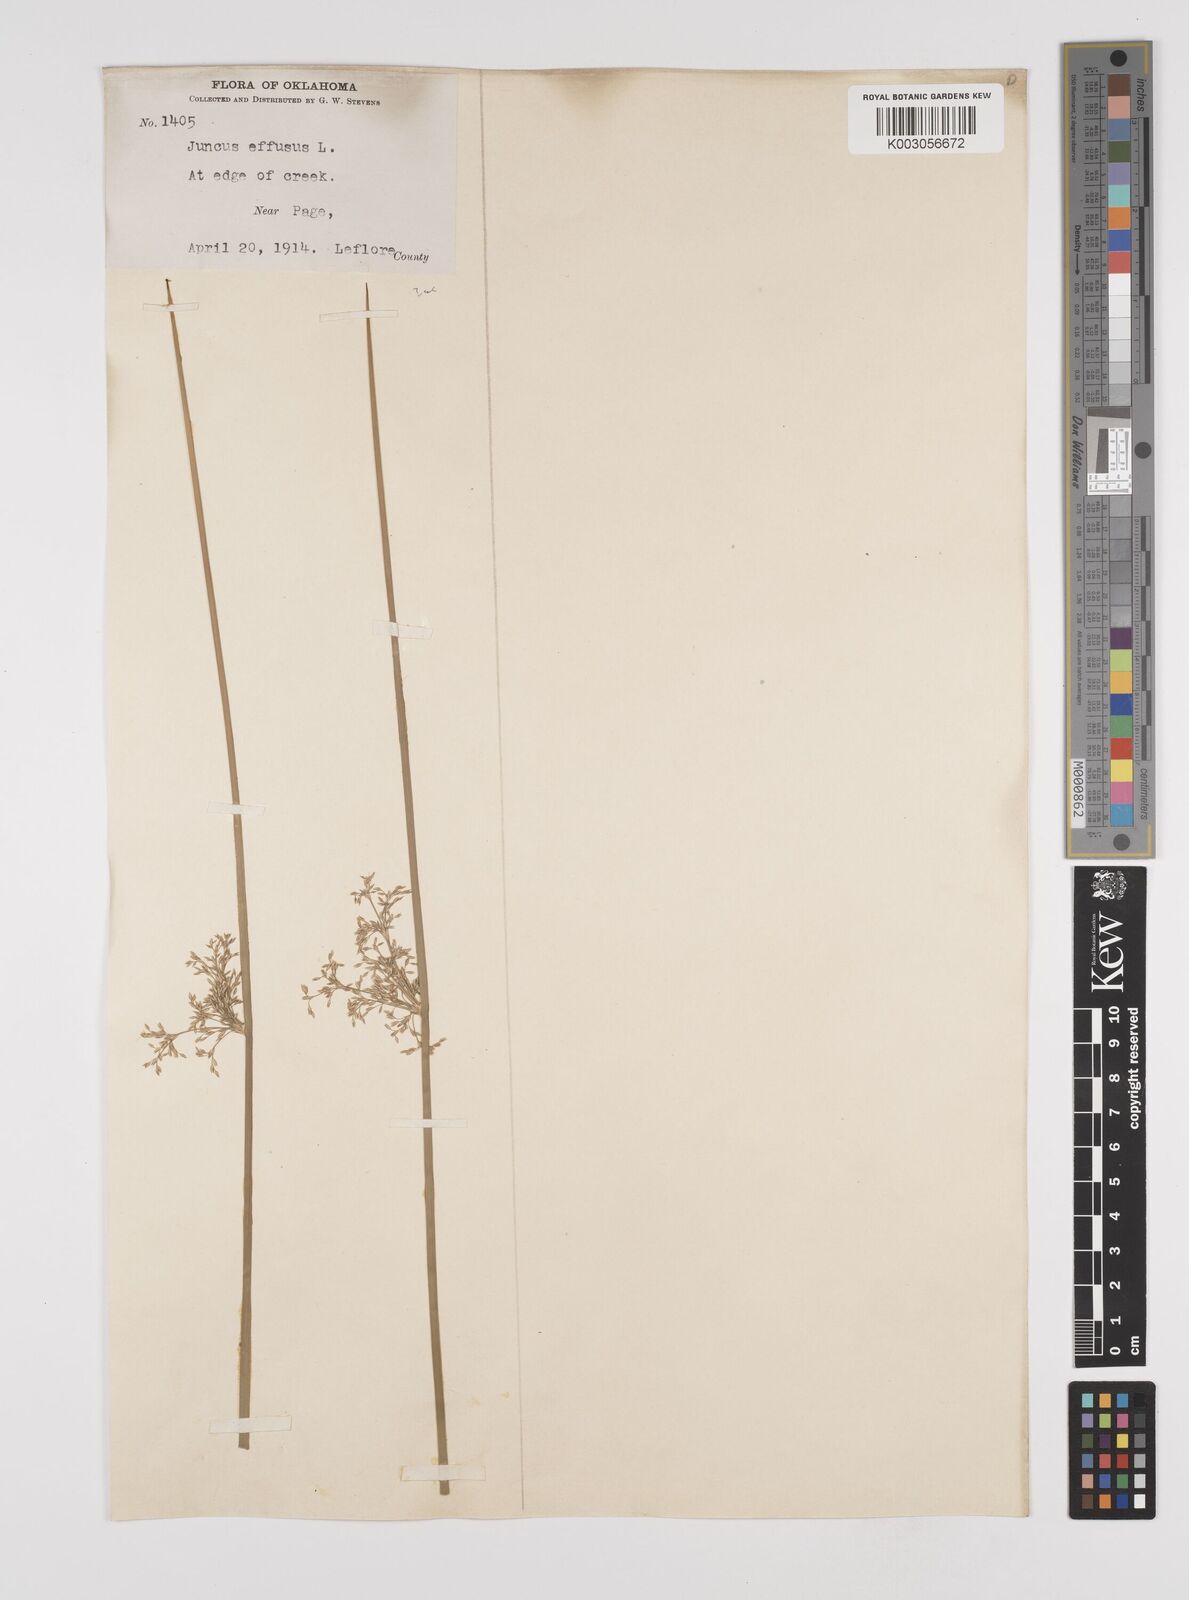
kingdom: Plantae
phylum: Tracheophyta
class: Liliopsida
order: Poales
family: Juncaceae
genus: Juncus
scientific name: Juncus effusus
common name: Soft rush
